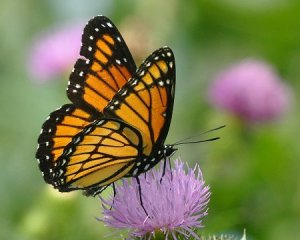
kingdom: Animalia
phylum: Arthropoda
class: Insecta
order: Lepidoptera
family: Nymphalidae
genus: Limenitis
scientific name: Limenitis archippus
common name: Viceroy
